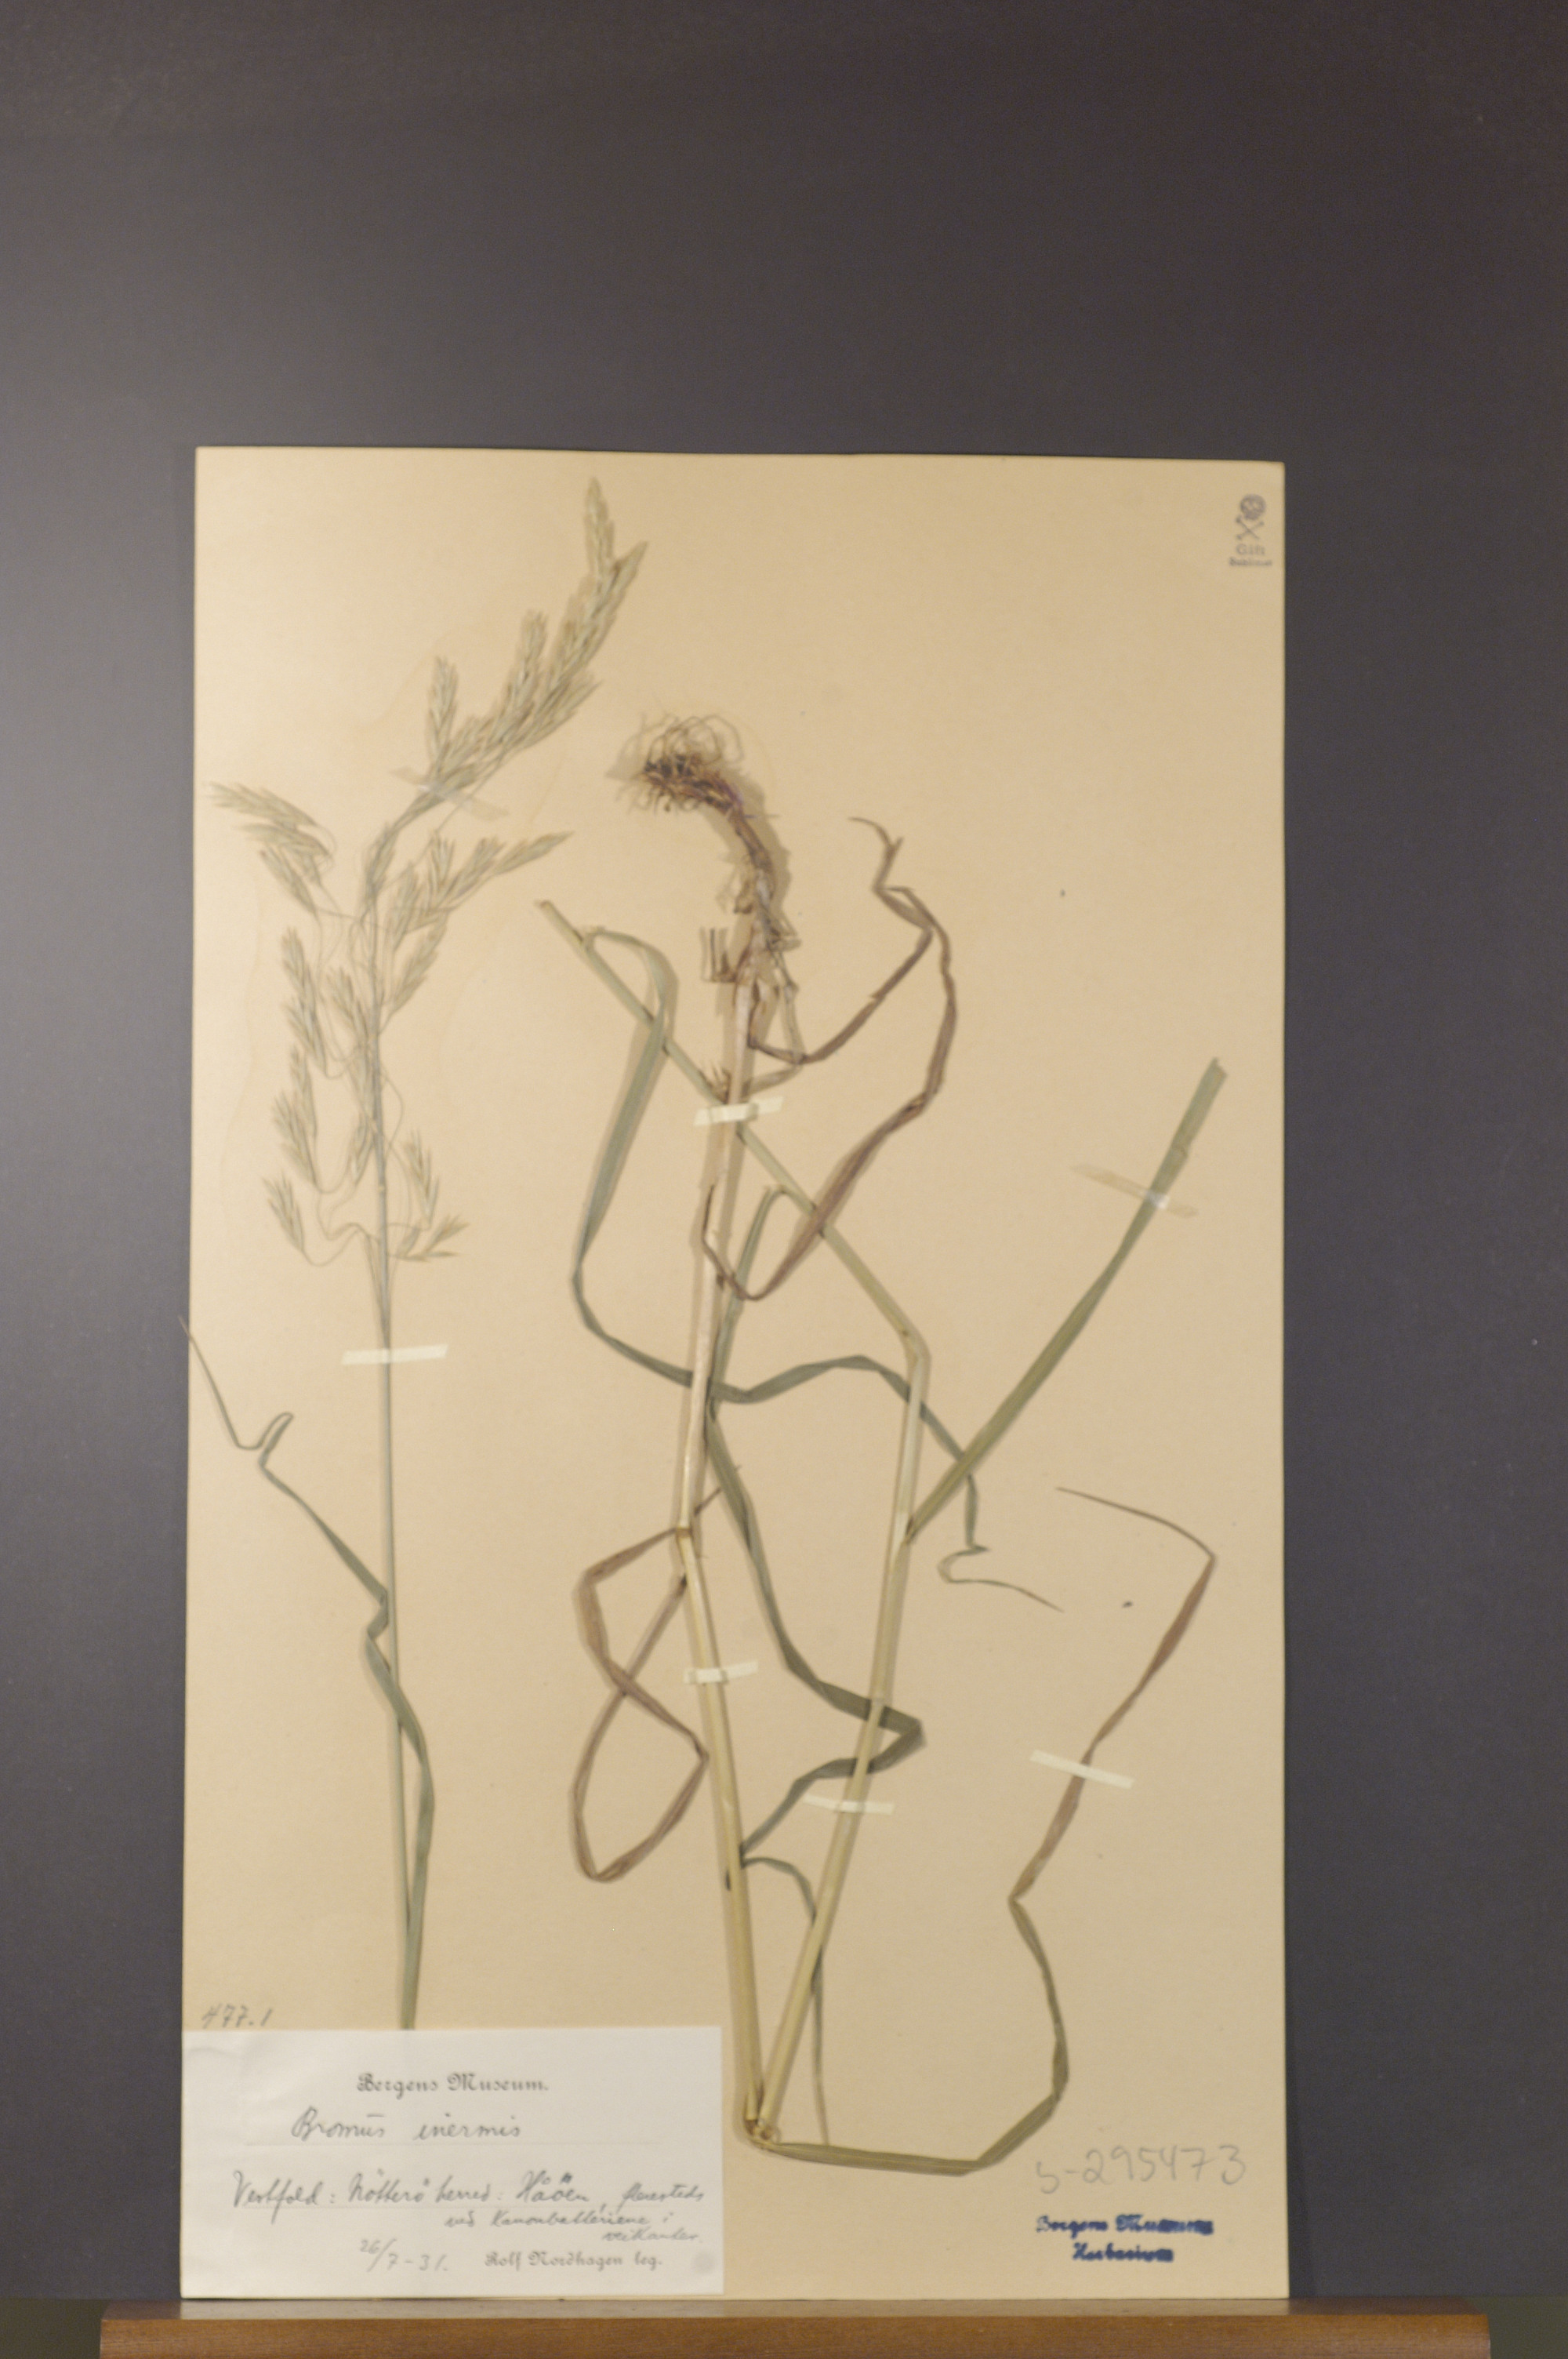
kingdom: Plantae
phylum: Tracheophyta
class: Liliopsida
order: Poales
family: Poaceae
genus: Bromus
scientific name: Bromus inermis
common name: Smooth brome
